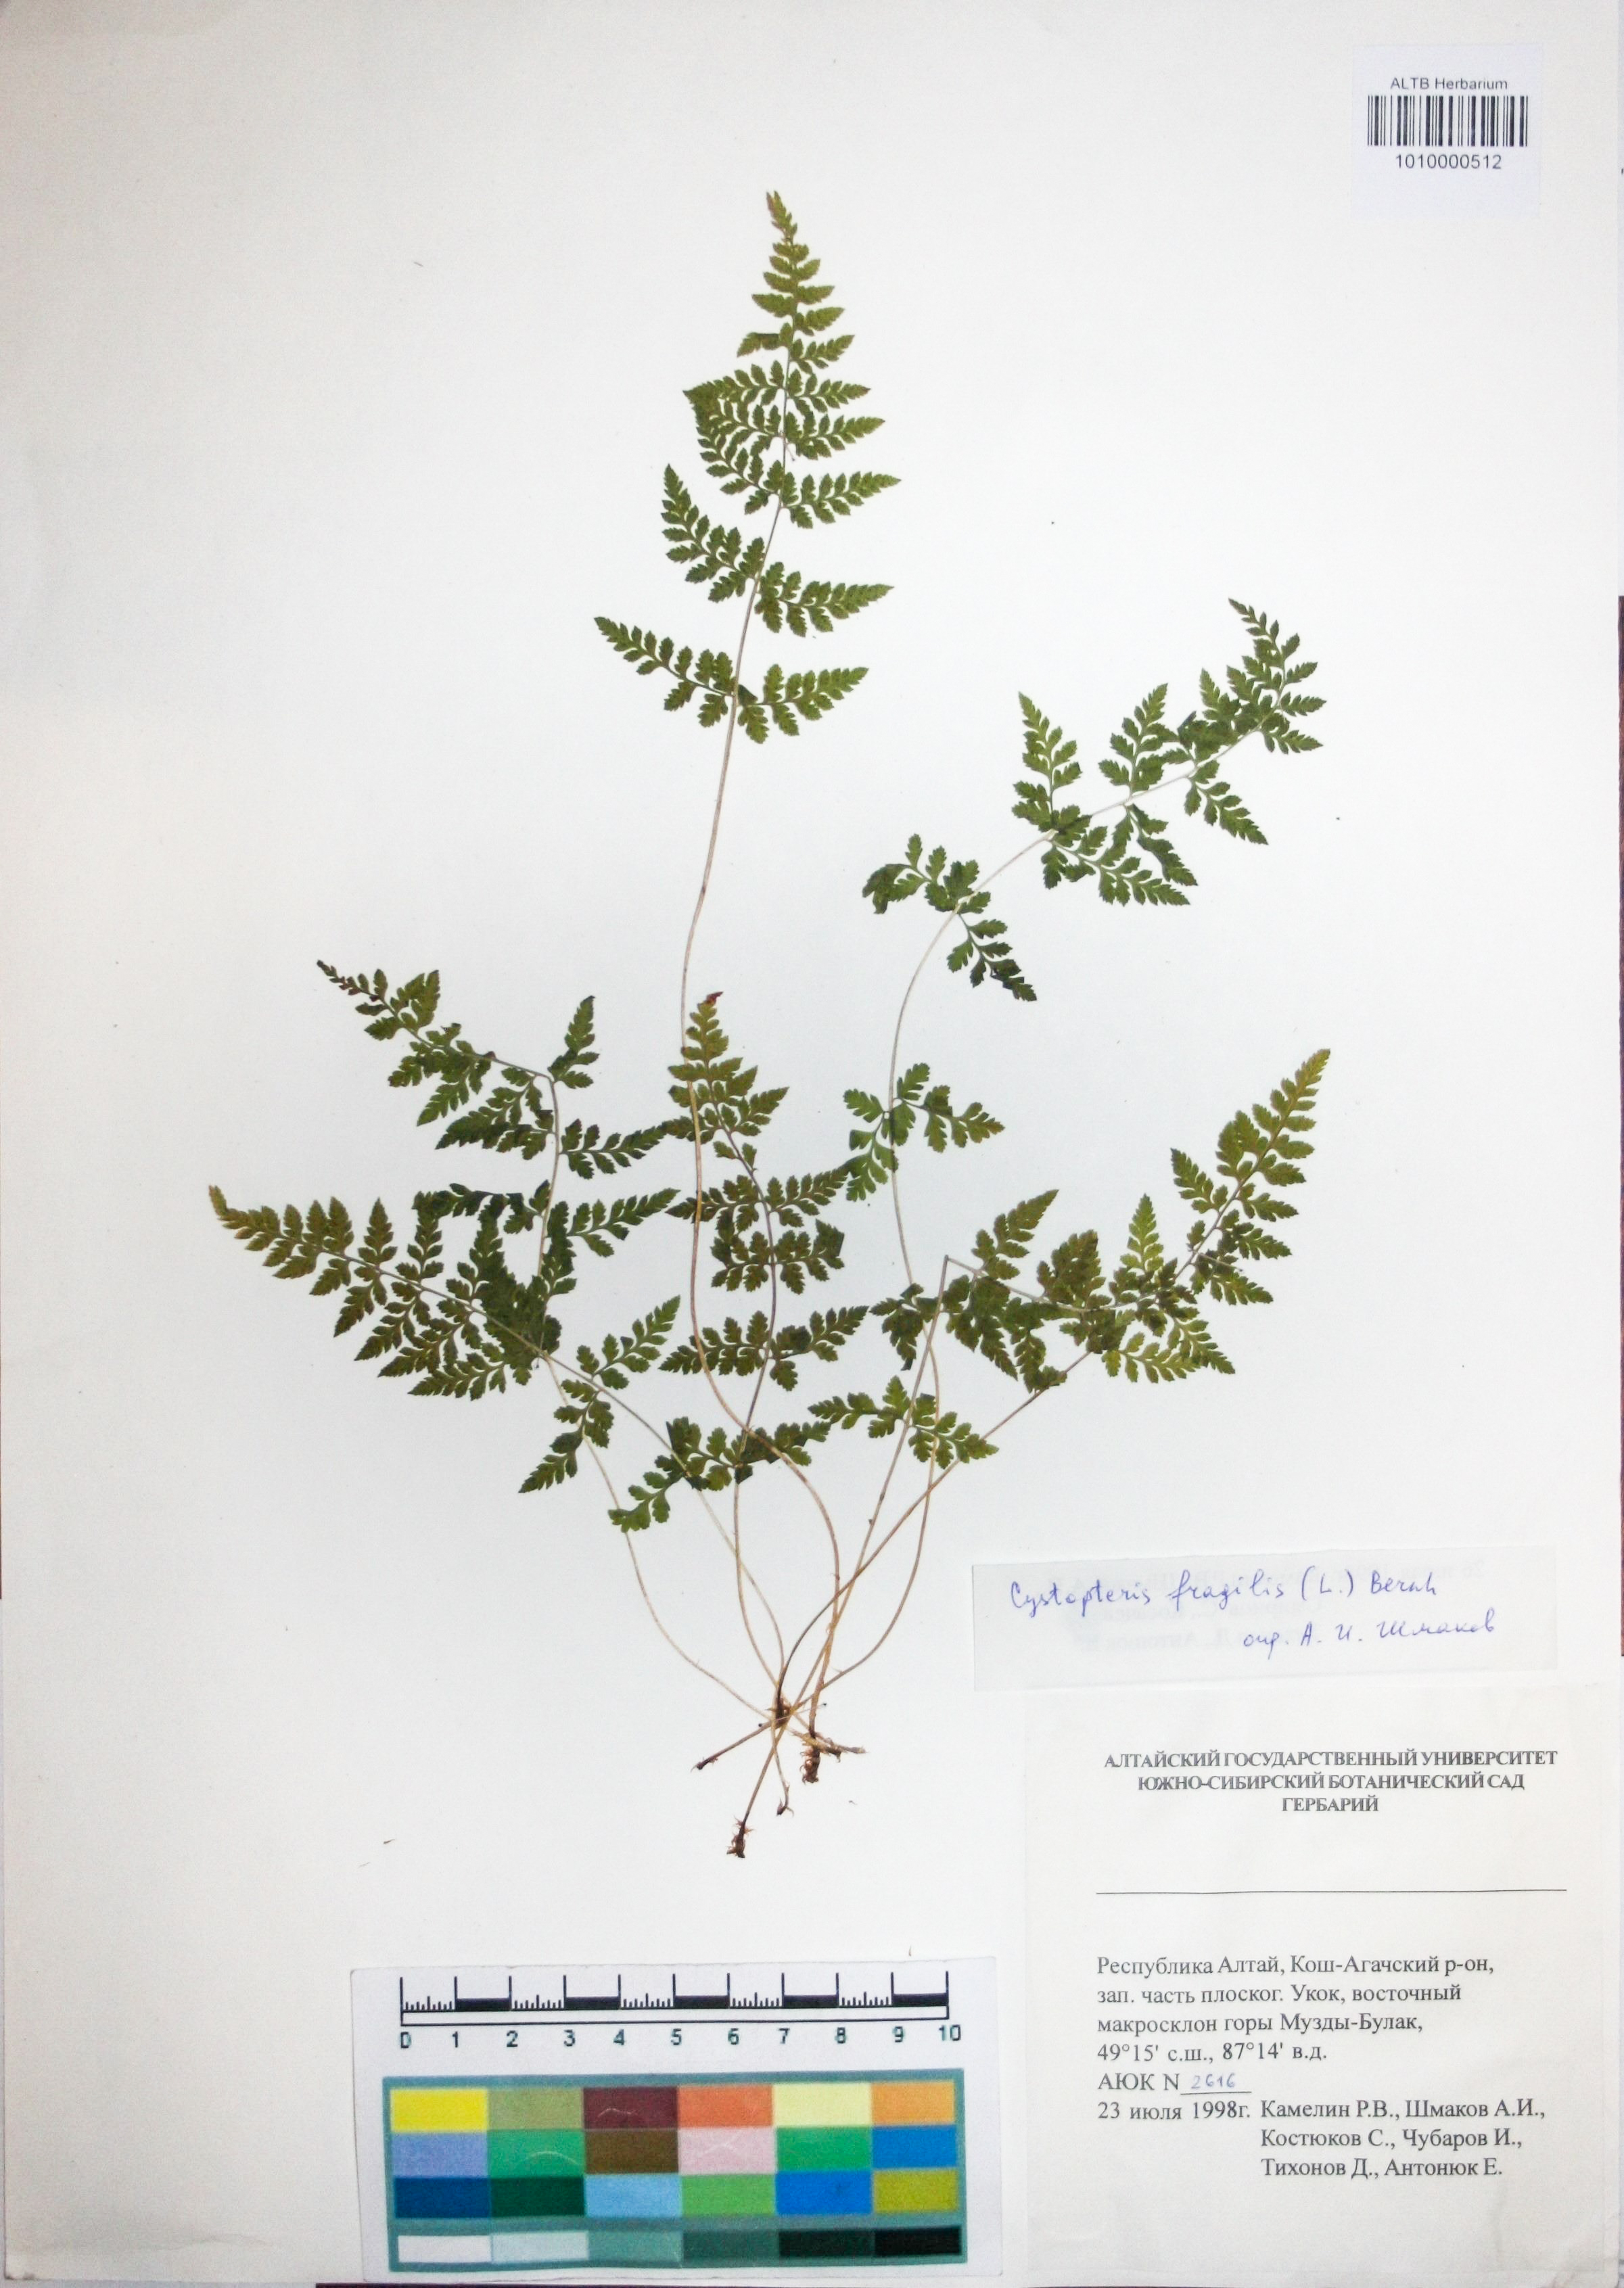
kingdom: Plantae
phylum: Tracheophyta
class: Polypodiopsida
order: Polypodiales
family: Cystopteridaceae
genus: Cystopteris
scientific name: Cystopteris fragilis
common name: Brittle bladder fern
